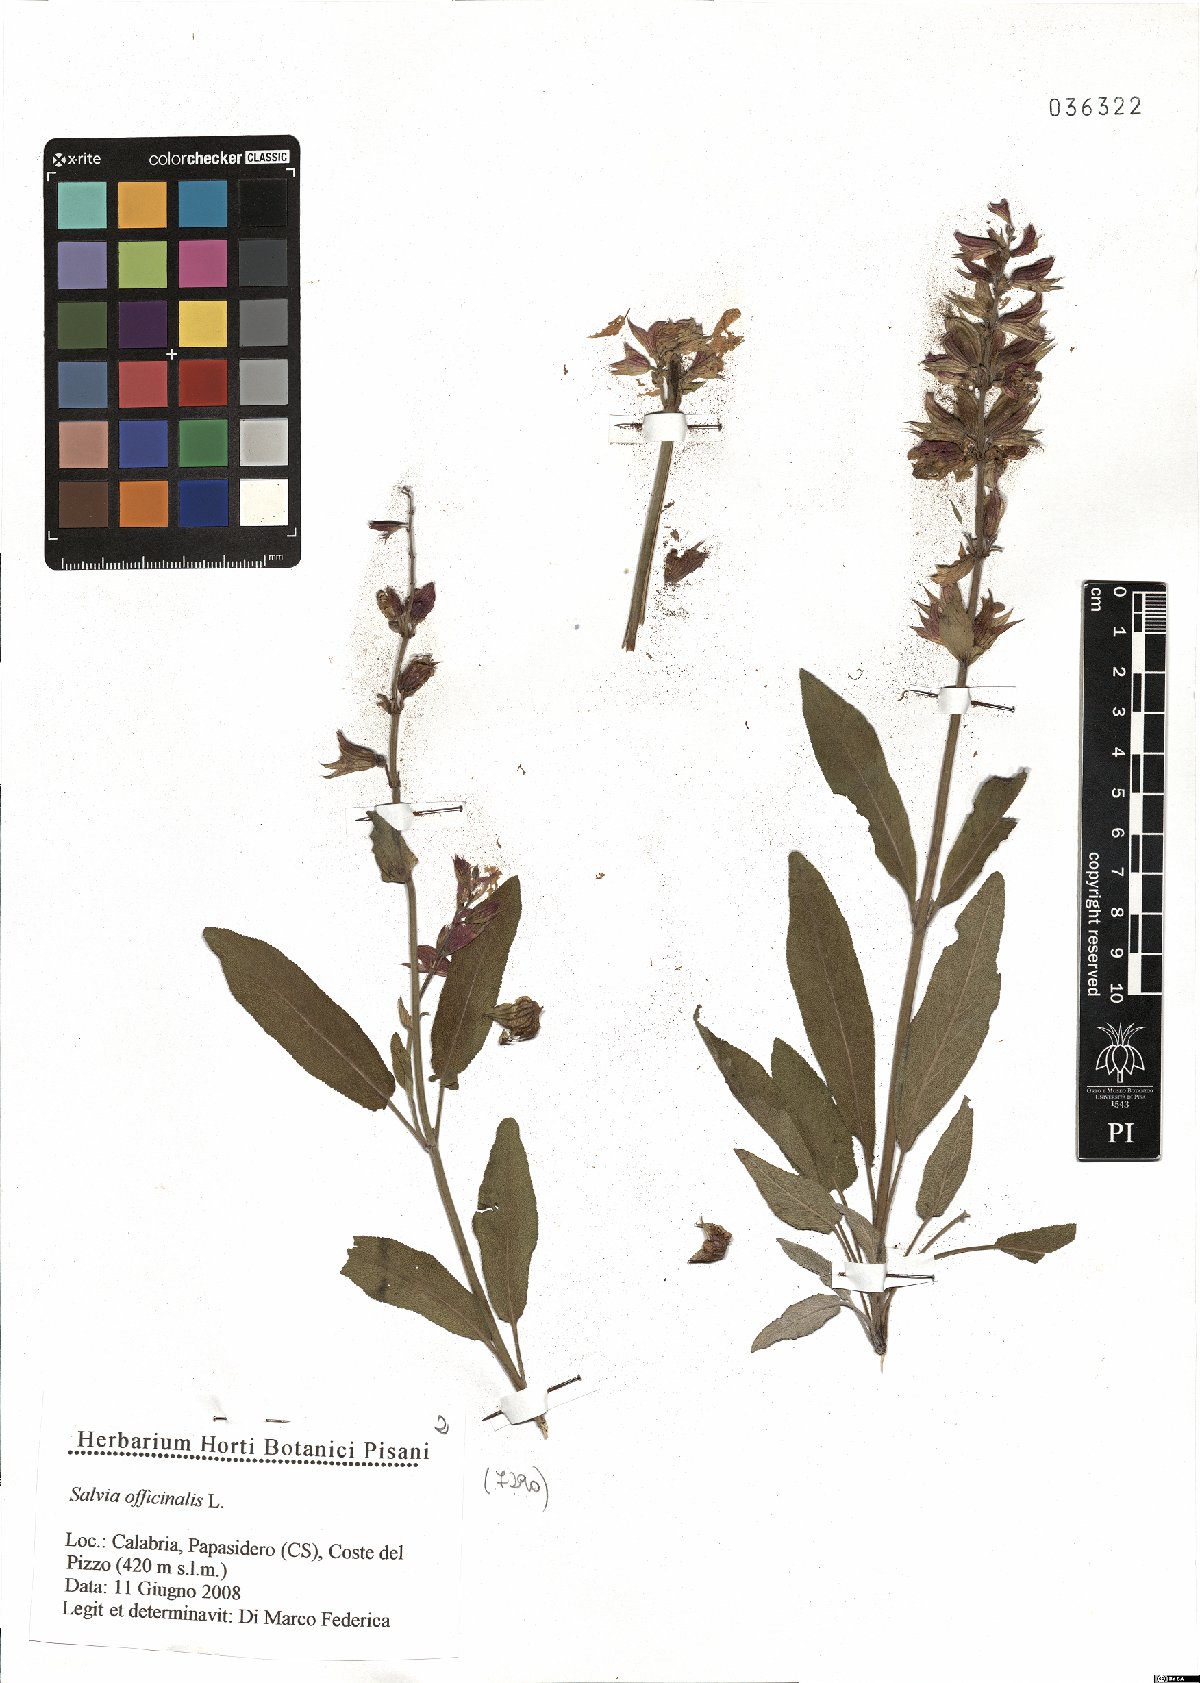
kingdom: Plantae
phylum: Tracheophyta
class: Magnoliopsida
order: Lamiales
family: Lamiaceae
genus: Salvia
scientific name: Salvia officinalis
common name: Sage
